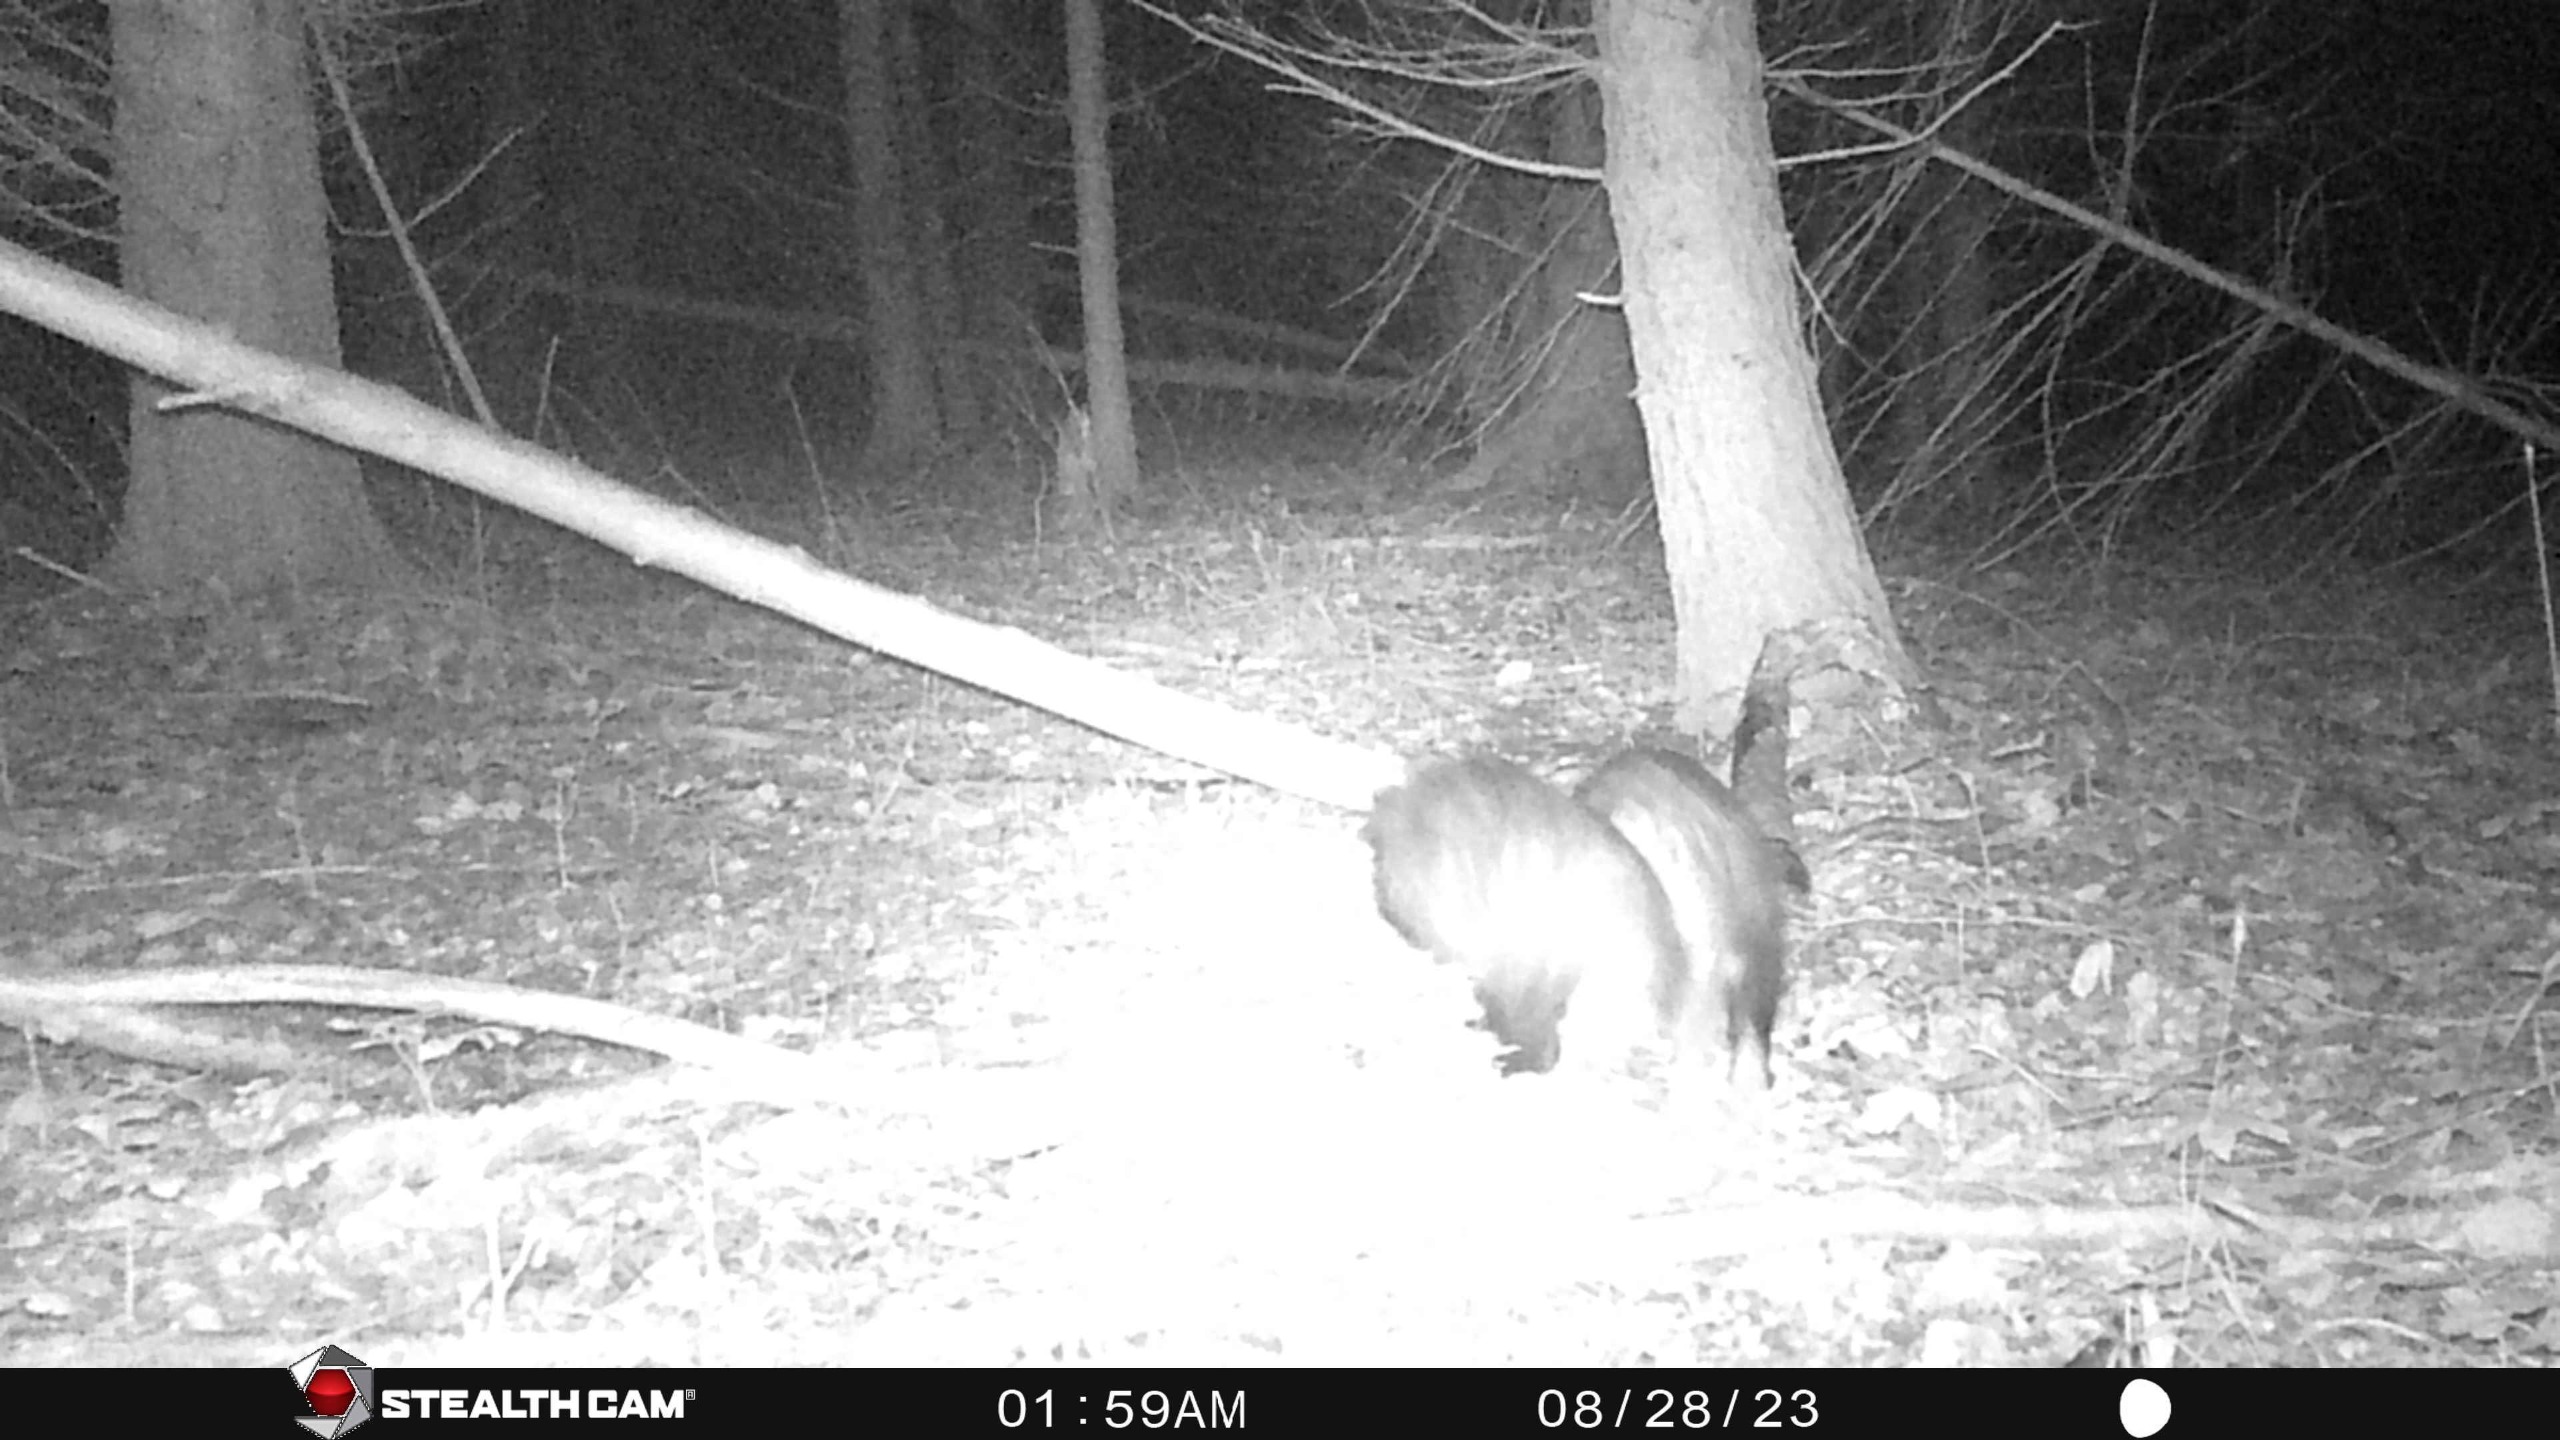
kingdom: Animalia
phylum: Chordata
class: Mammalia
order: Carnivora
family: Mustelidae
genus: Meles
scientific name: Meles meles
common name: Grævling
